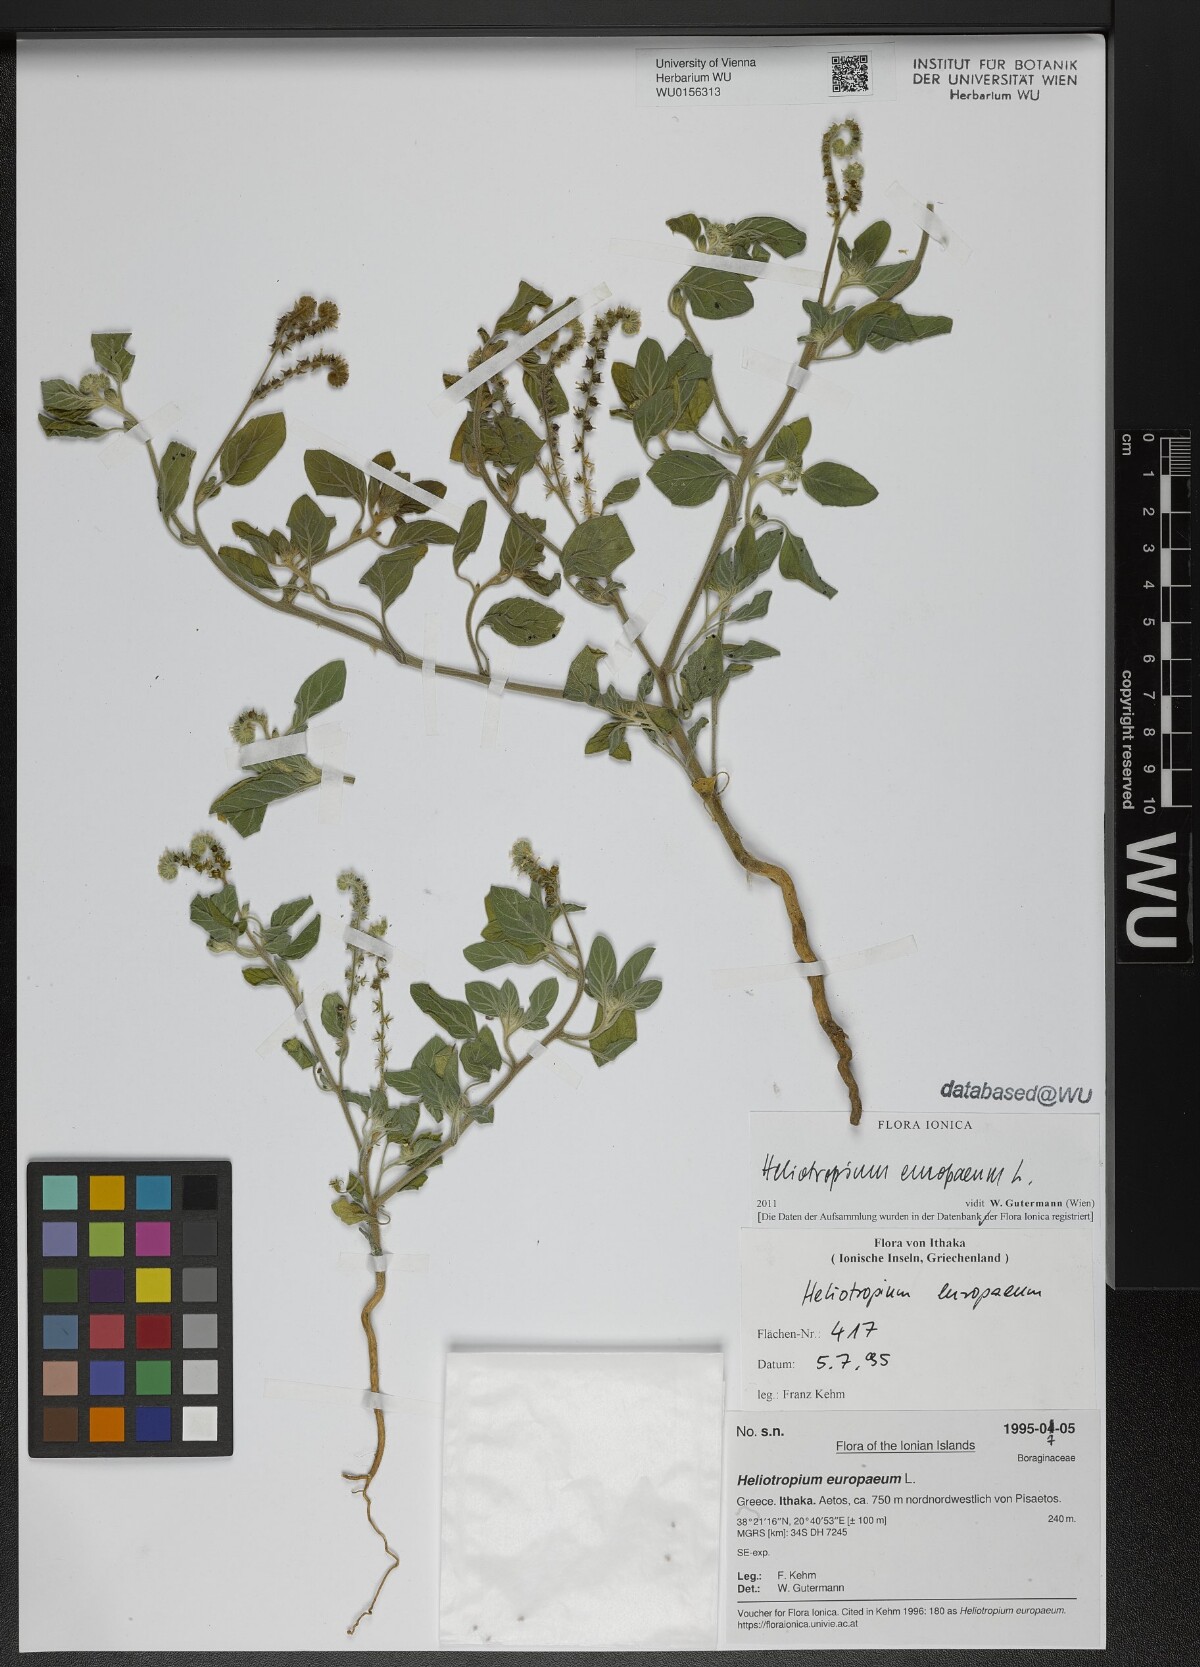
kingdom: Plantae
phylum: Tracheophyta
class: Magnoliopsida
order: Boraginales
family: Heliotropiaceae
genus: Heliotropium
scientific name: Heliotropium europaeum
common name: European heliotrope
